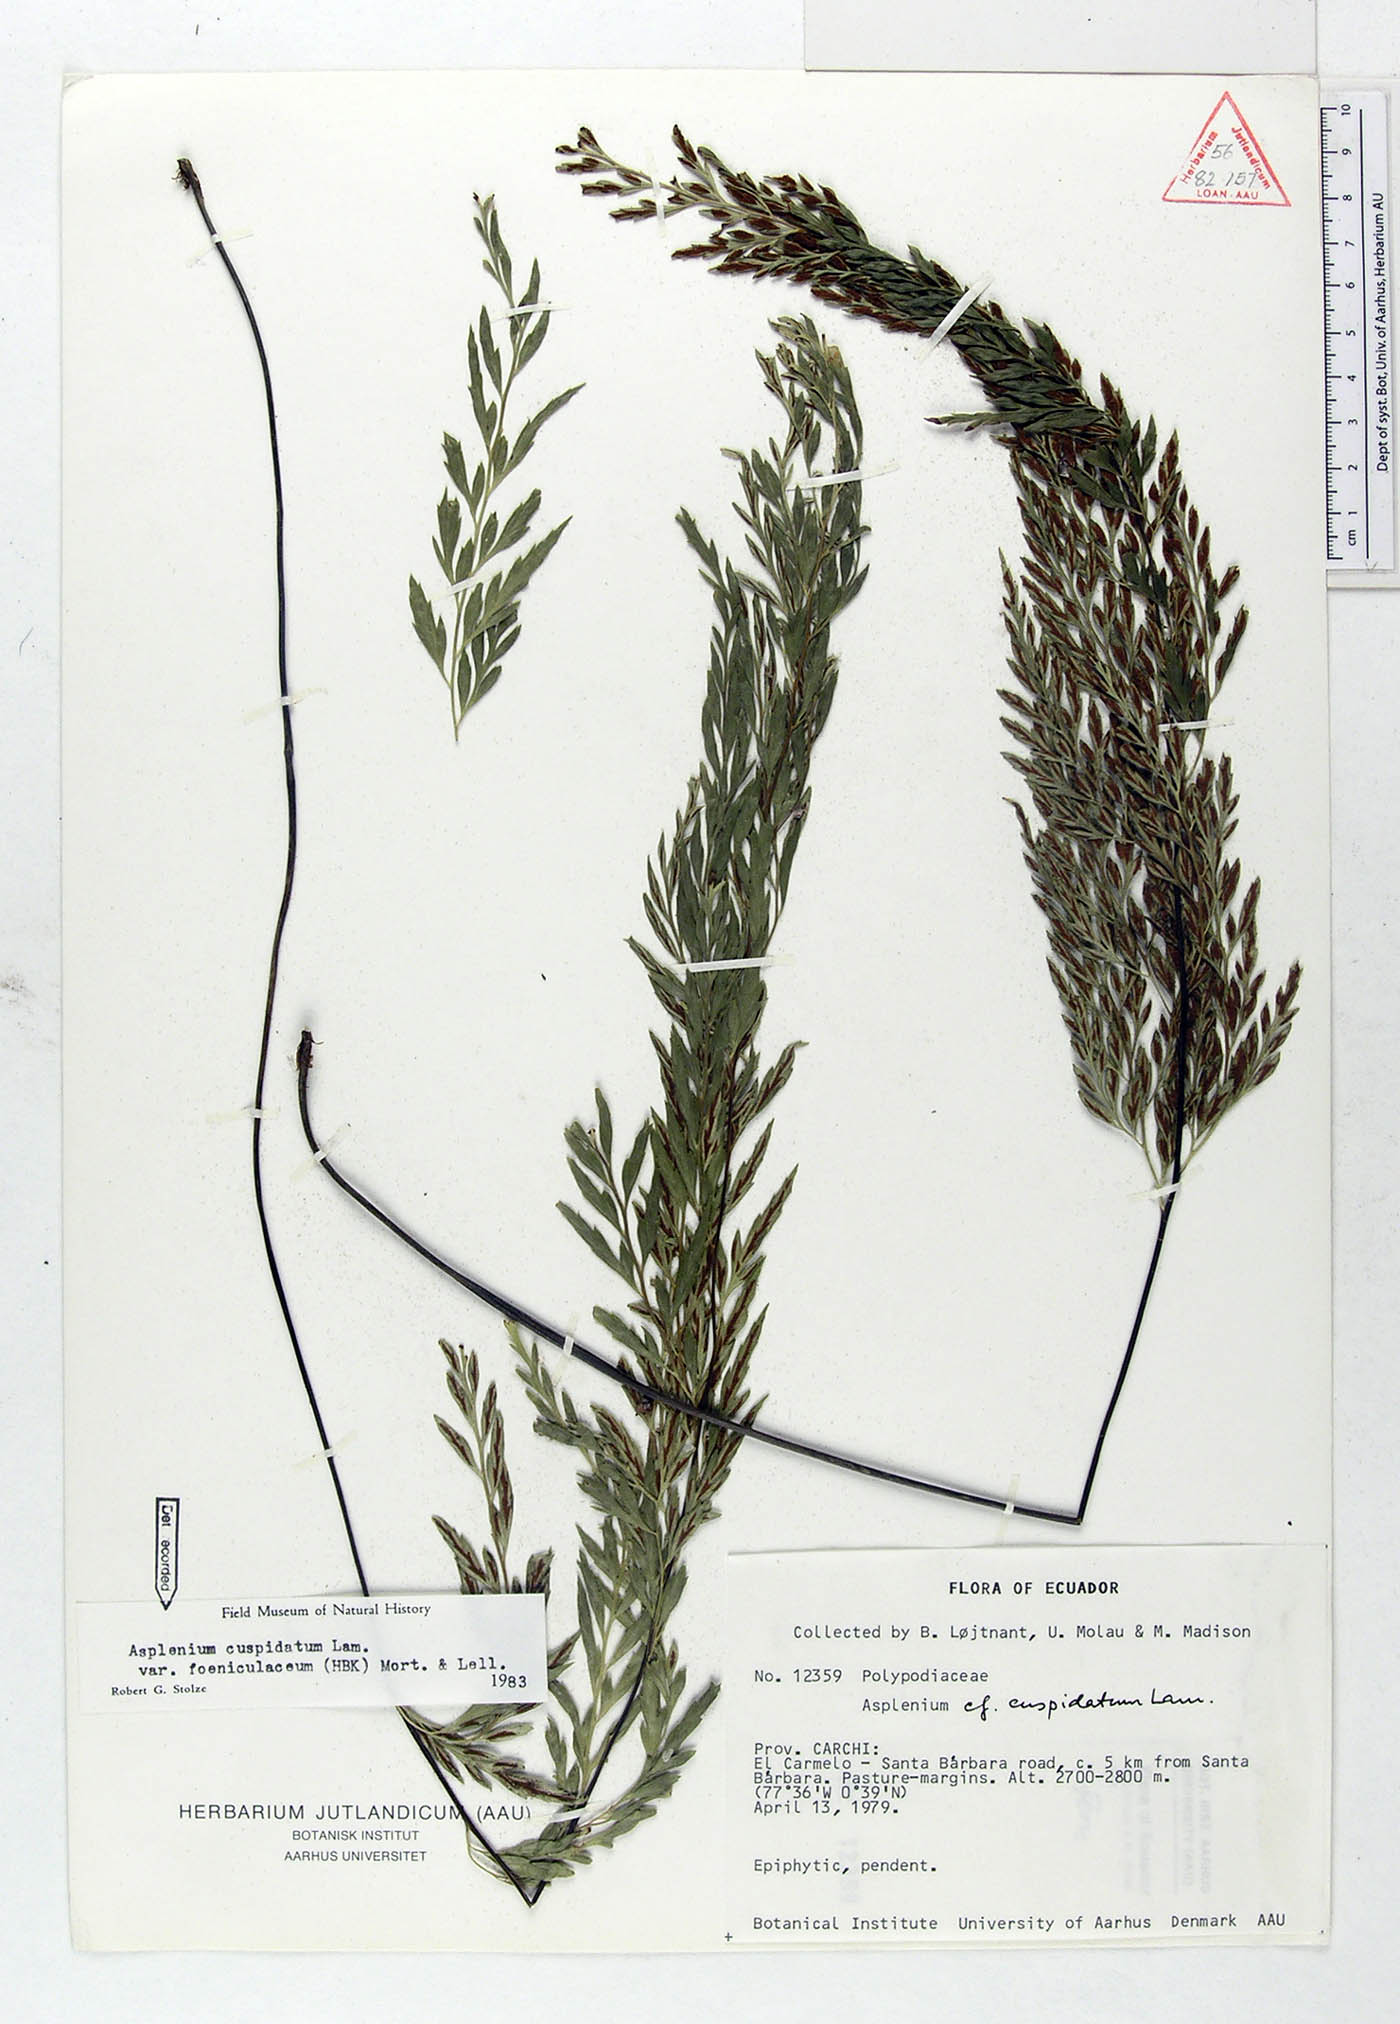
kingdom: Plantae
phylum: Tracheophyta
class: Polypodiopsida
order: Polypodiales
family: Aspleniaceae
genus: Asplenium
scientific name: Asplenium fragrans
